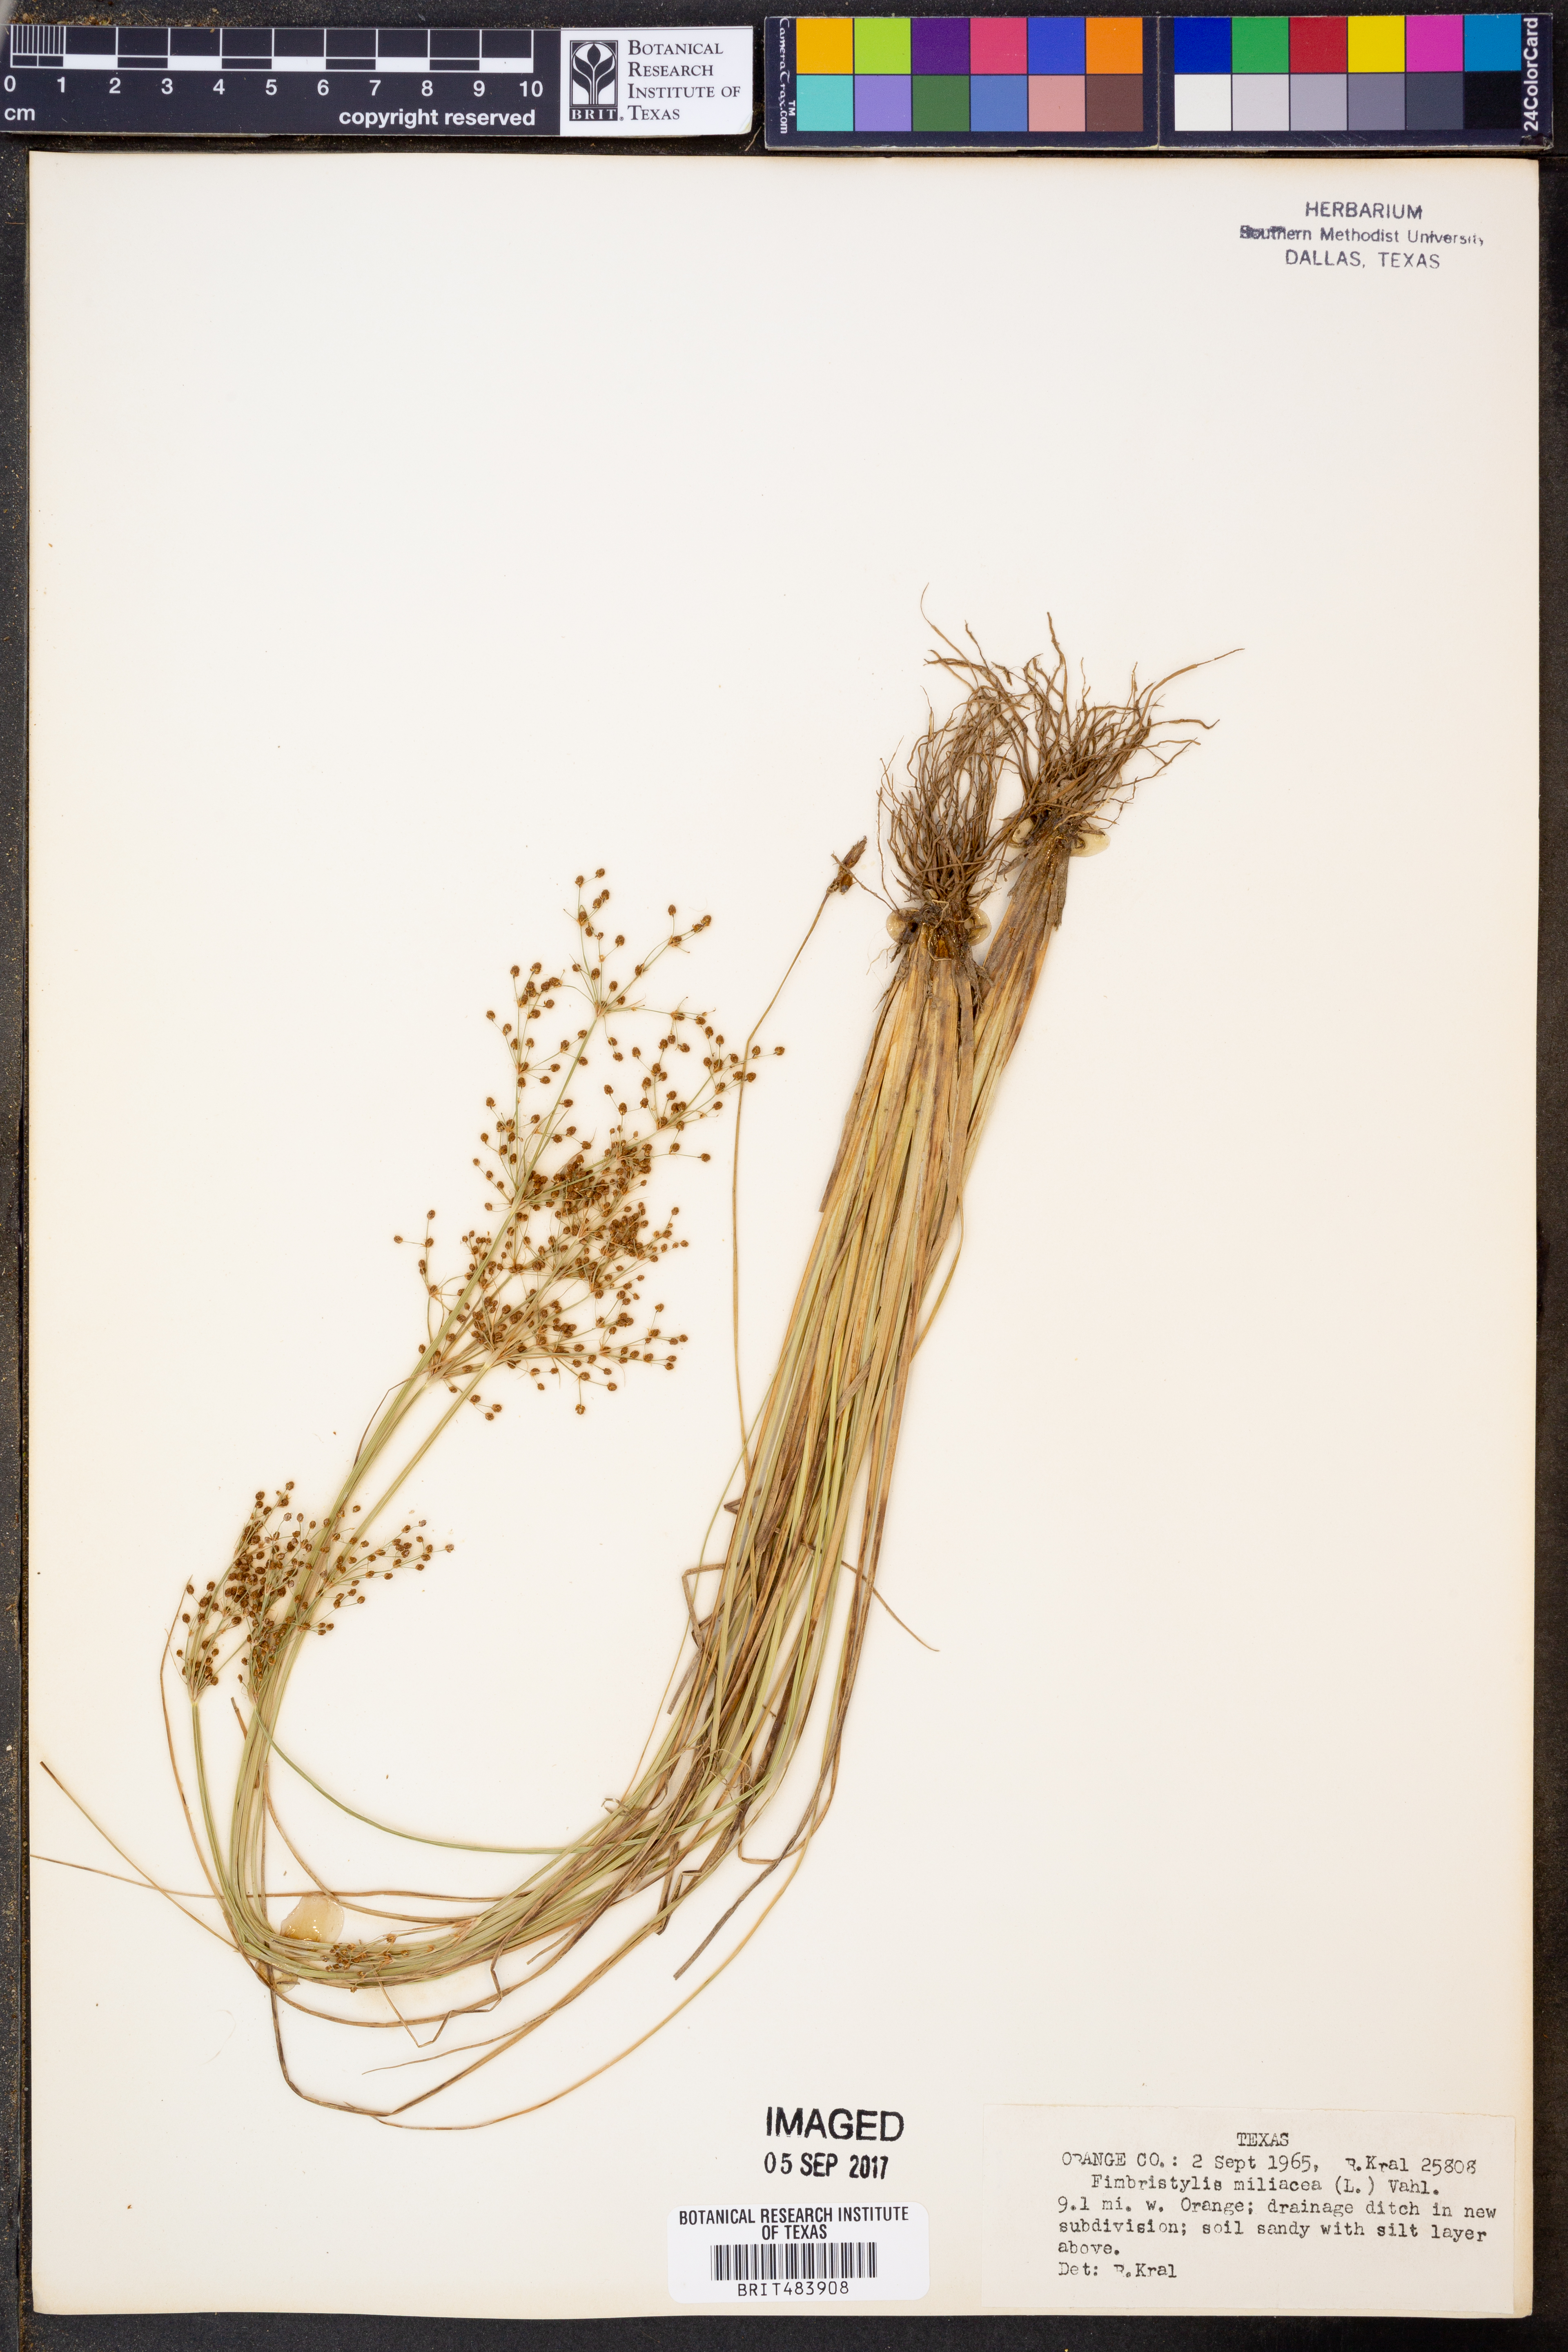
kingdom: Plantae
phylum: Tracheophyta
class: Liliopsida
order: Poales
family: Cyperaceae
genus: Fimbristylis
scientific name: Fimbristylis quinquangularis
